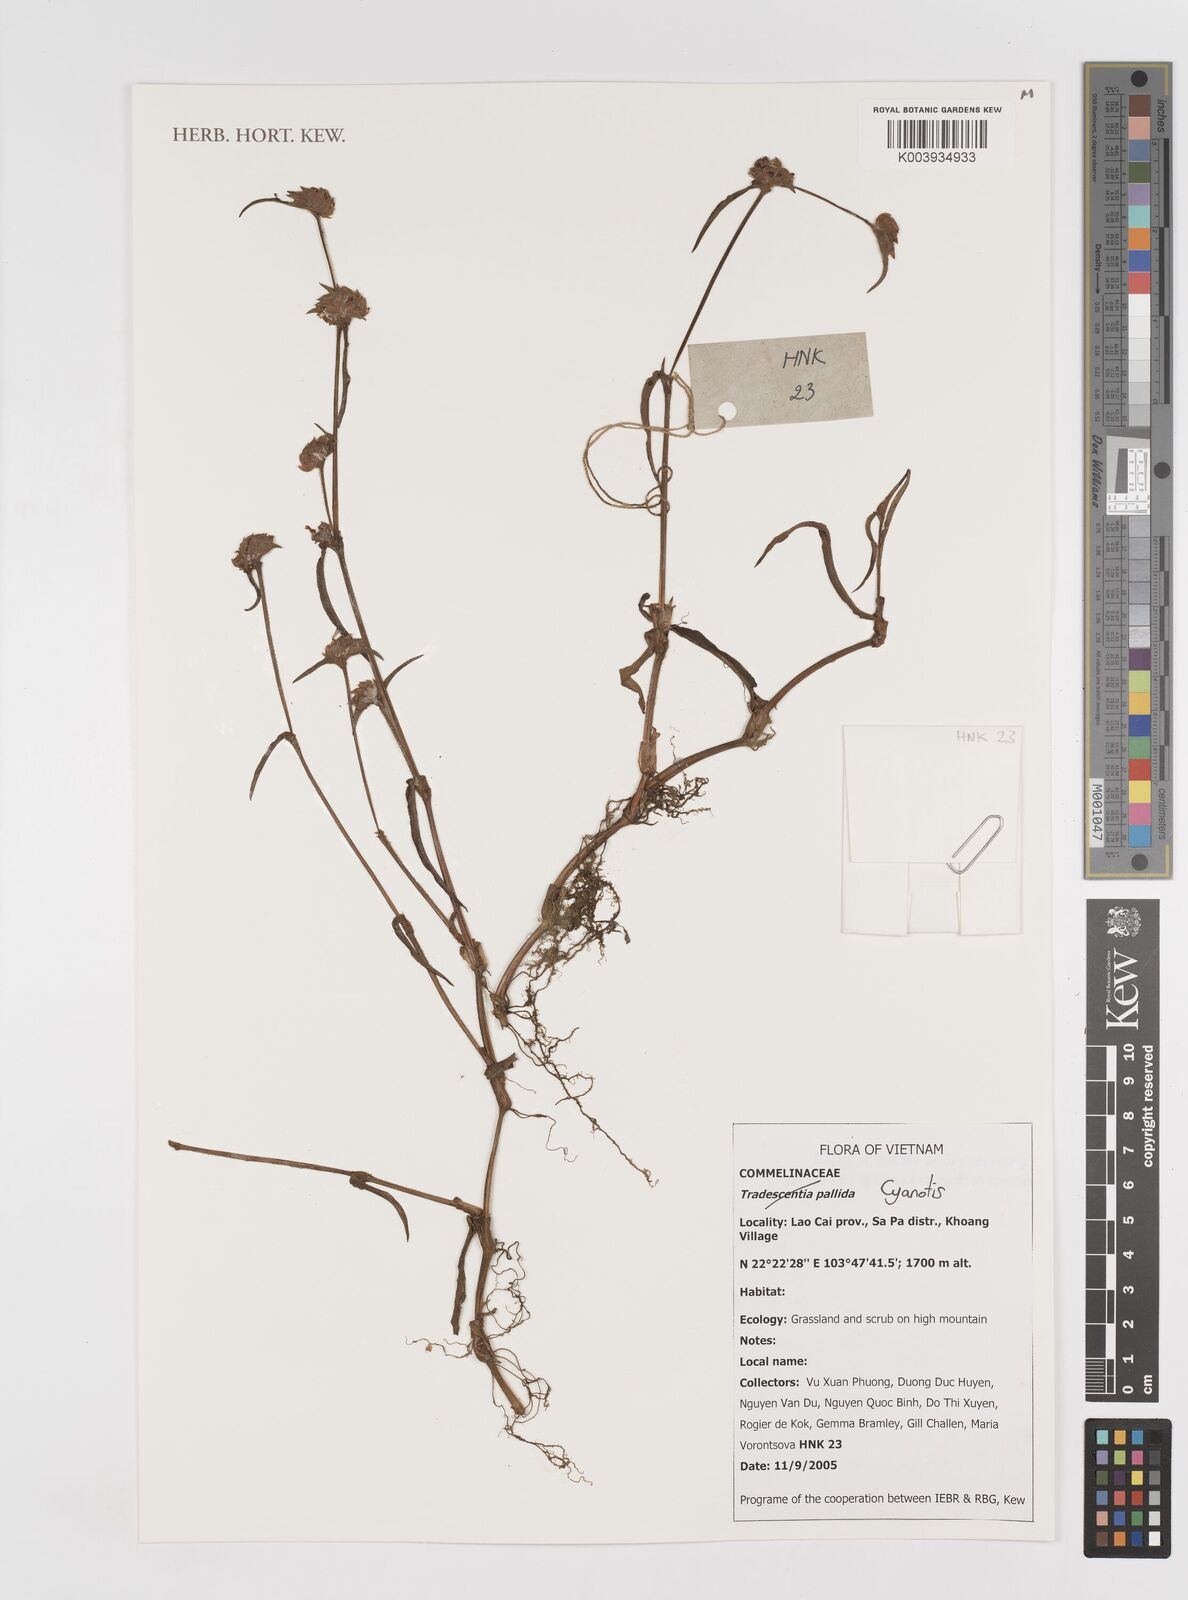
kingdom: Plantae
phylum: Tracheophyta
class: Liliopsida
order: Commelinales
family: Commelinaceae
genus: Cyanotis
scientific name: Cyanotis
